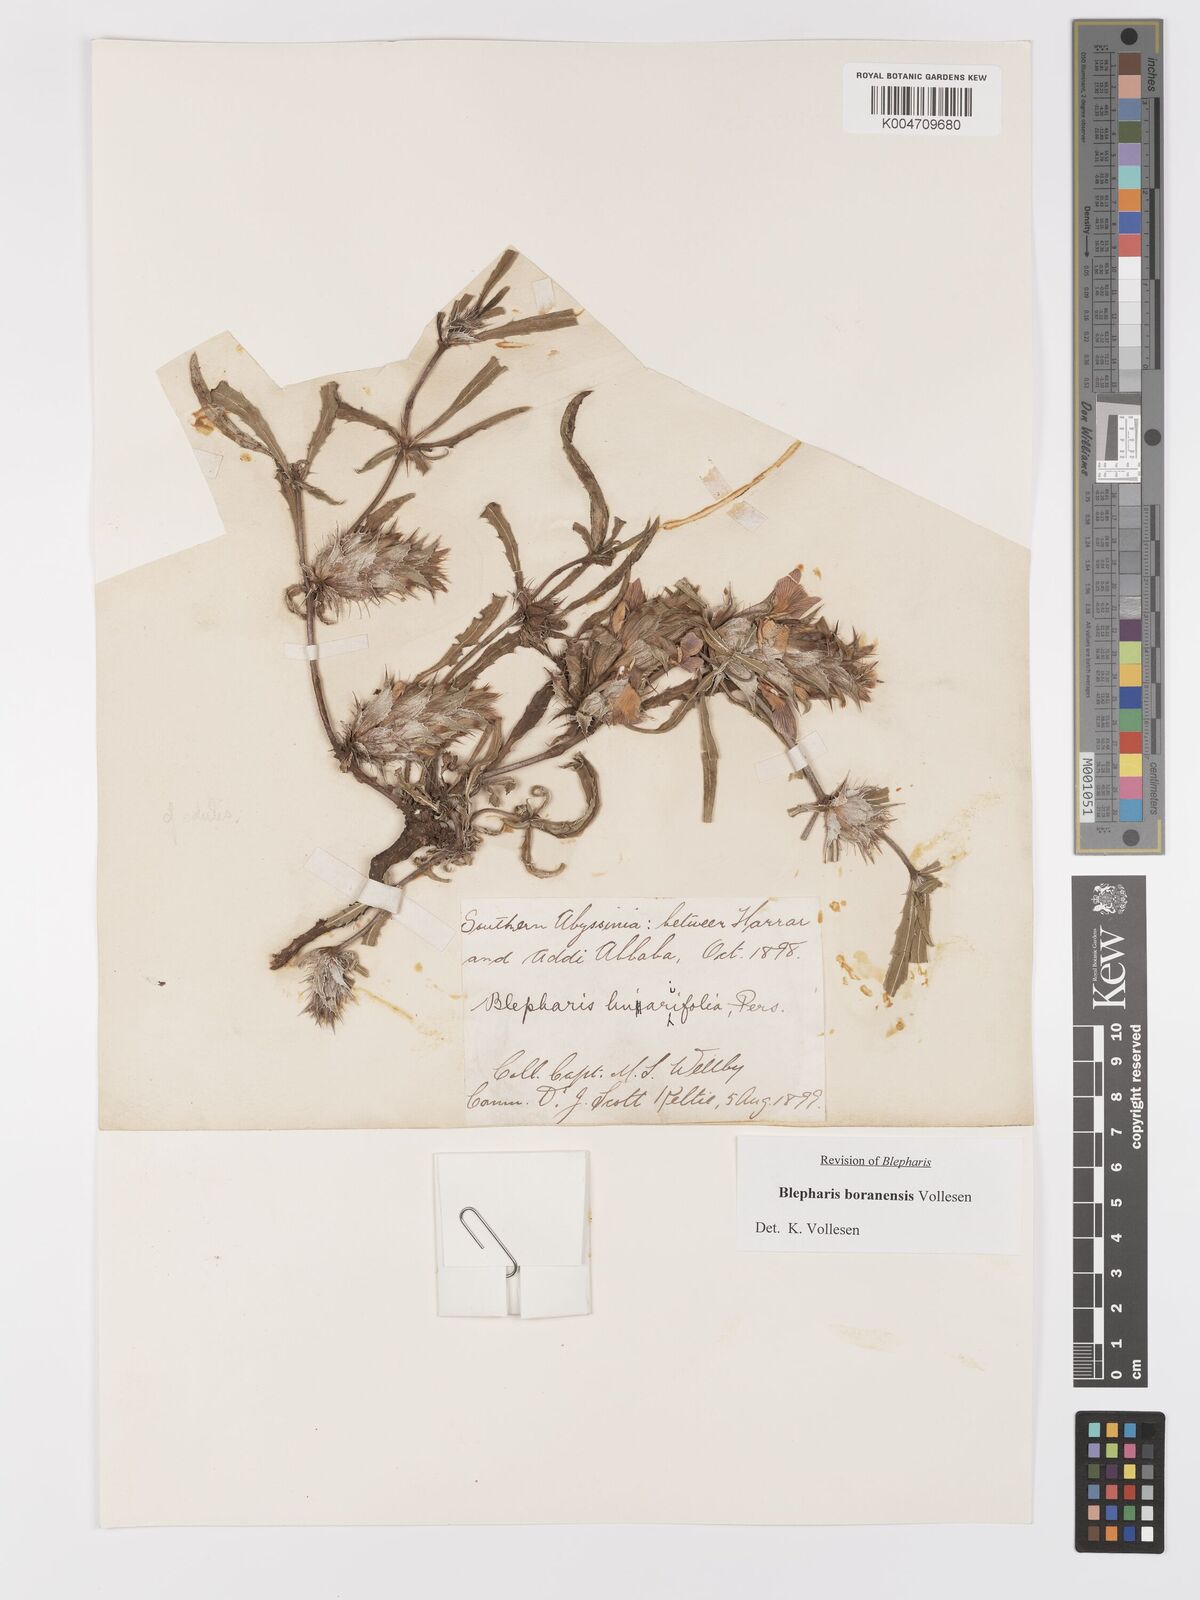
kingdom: Plantae
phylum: Tracheophyta
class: Magnoliopsida
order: Lamiales
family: Acanthaceae
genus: Blepharis
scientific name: Blepharis boranensis
